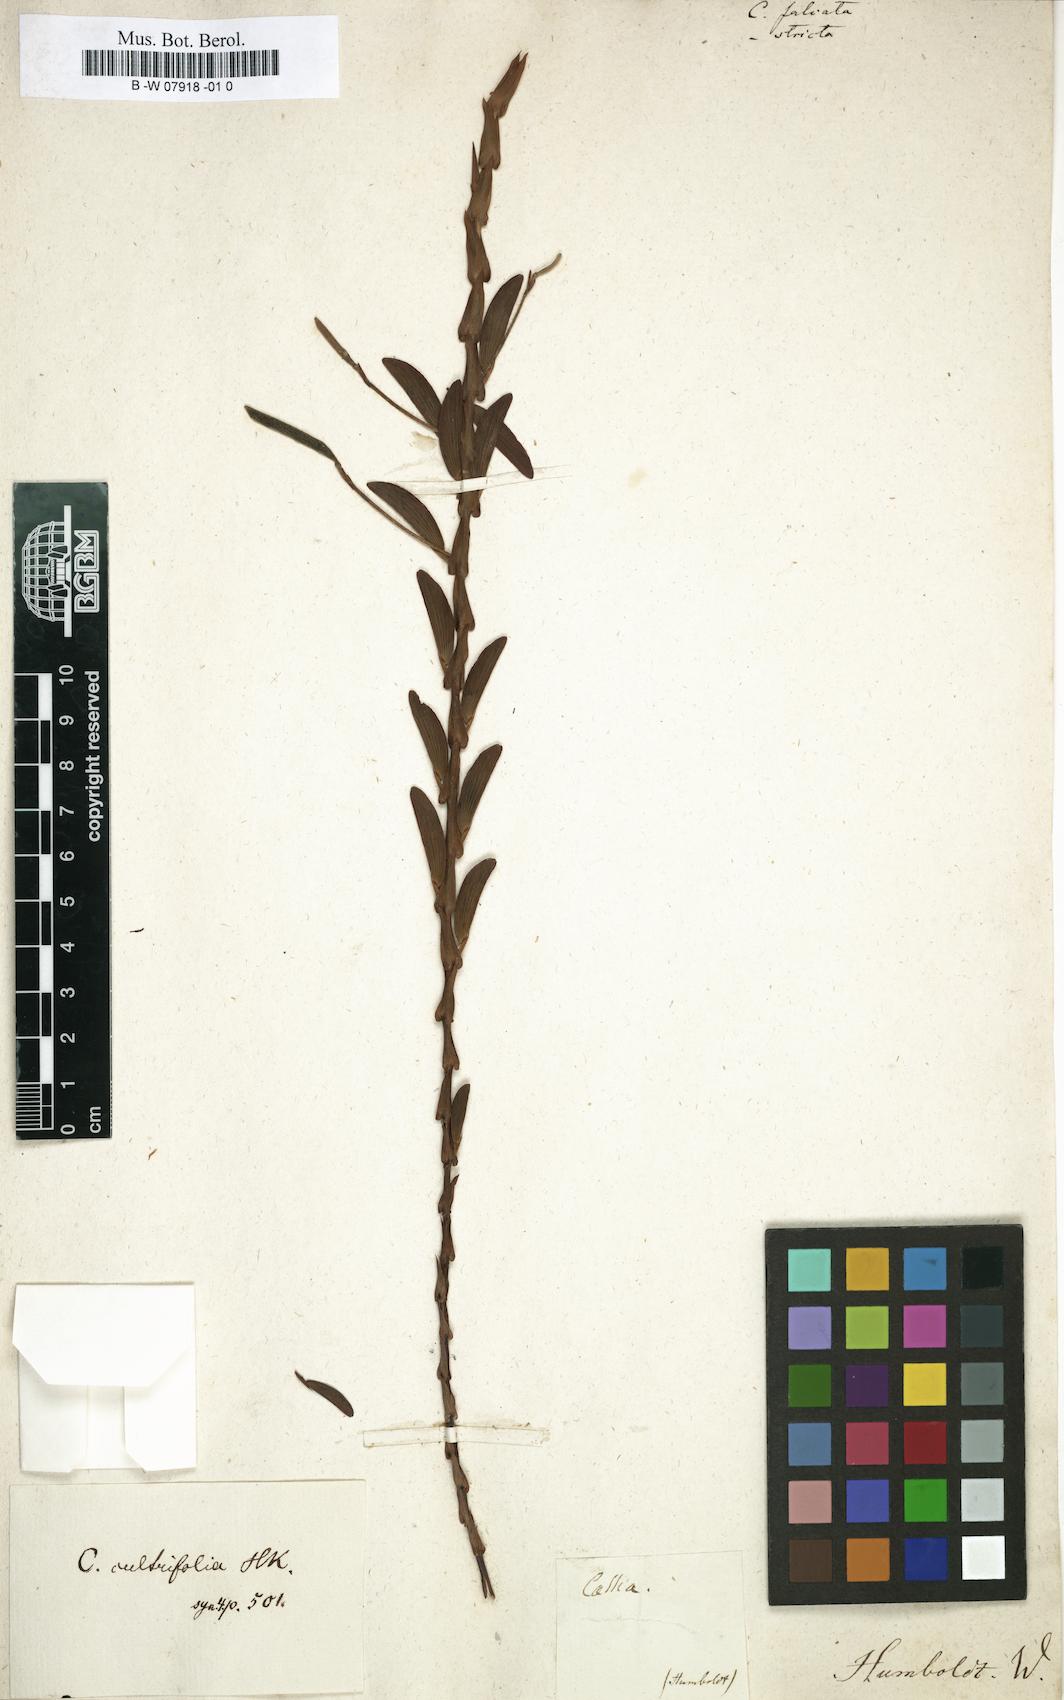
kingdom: Plantae
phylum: Tracheophyta
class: Magnoliopsida
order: Fabales
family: Fabaceae
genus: Senna
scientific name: Senna
